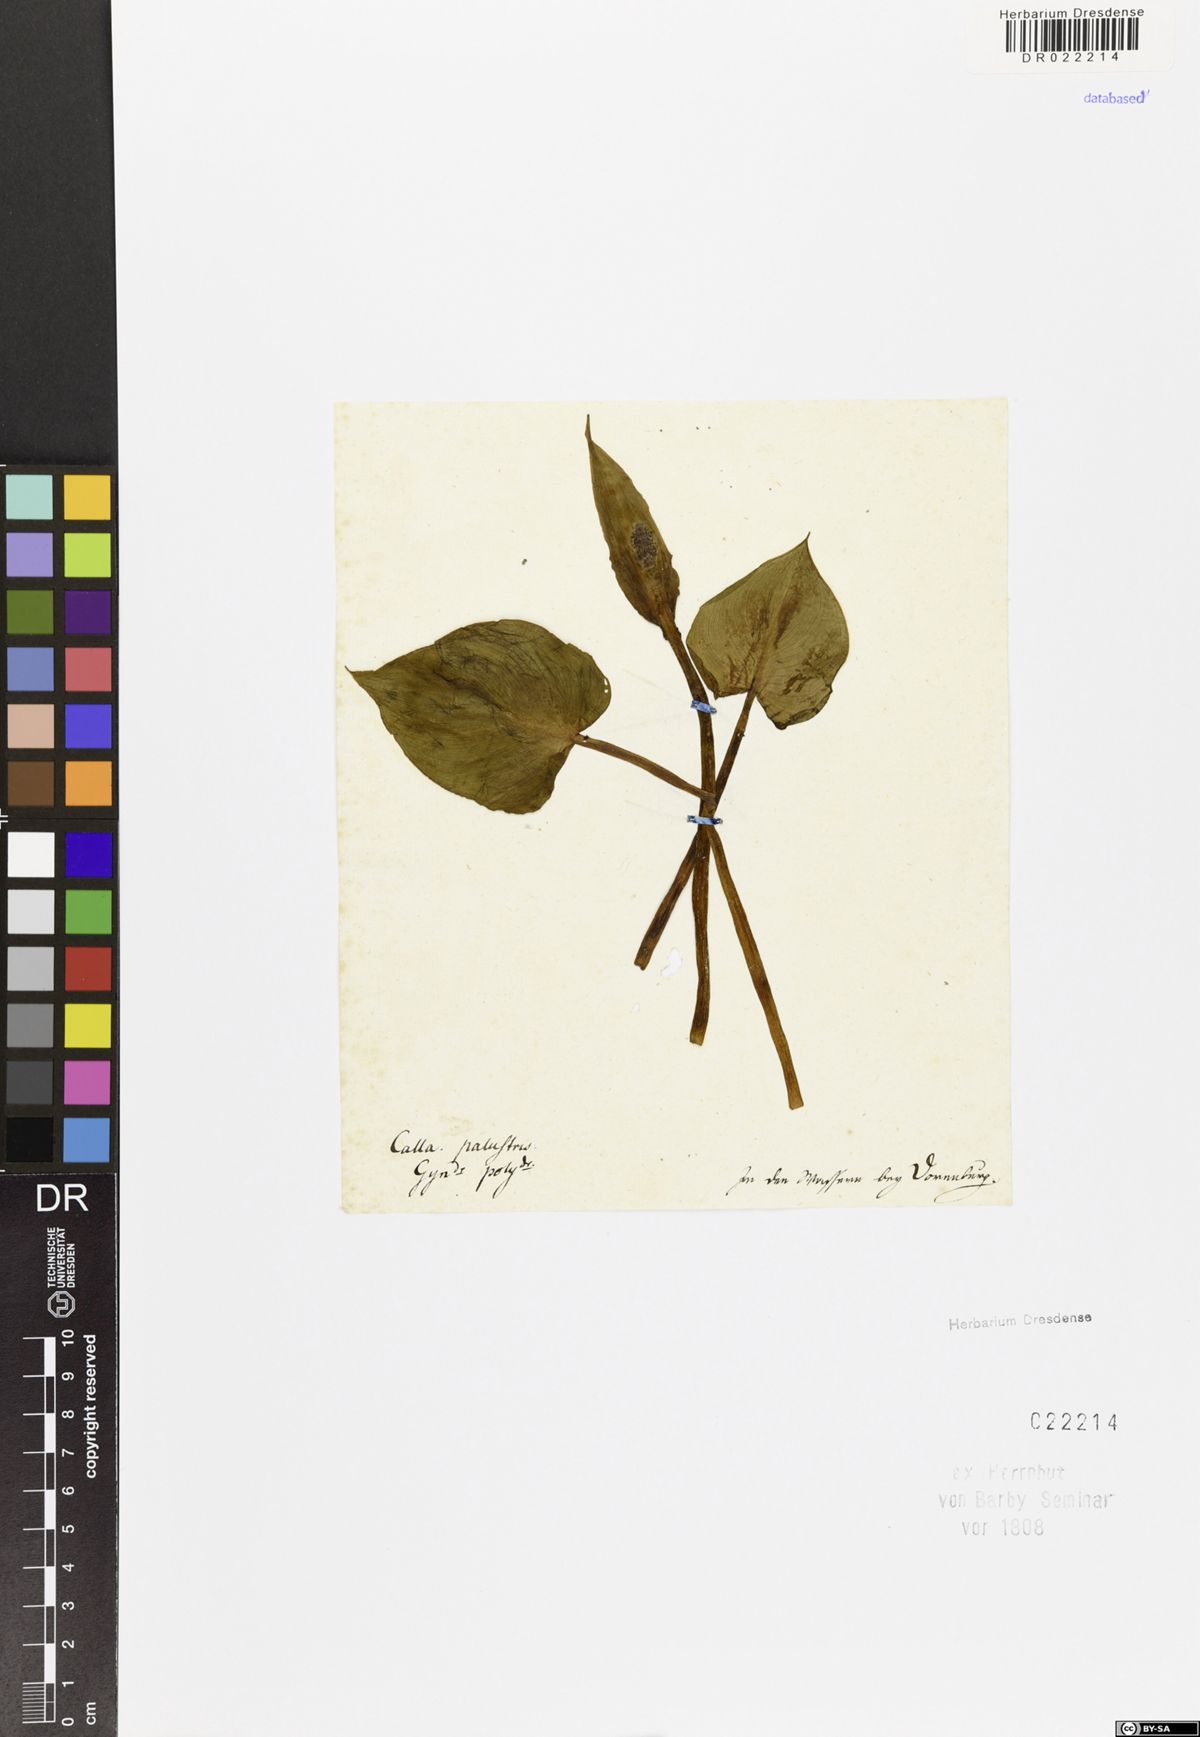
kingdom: Plantae
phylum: Tracheophyta
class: Liliopsida
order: Alismatales
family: Araceae
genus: Calla
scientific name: Calla palustris
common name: Bog arum
